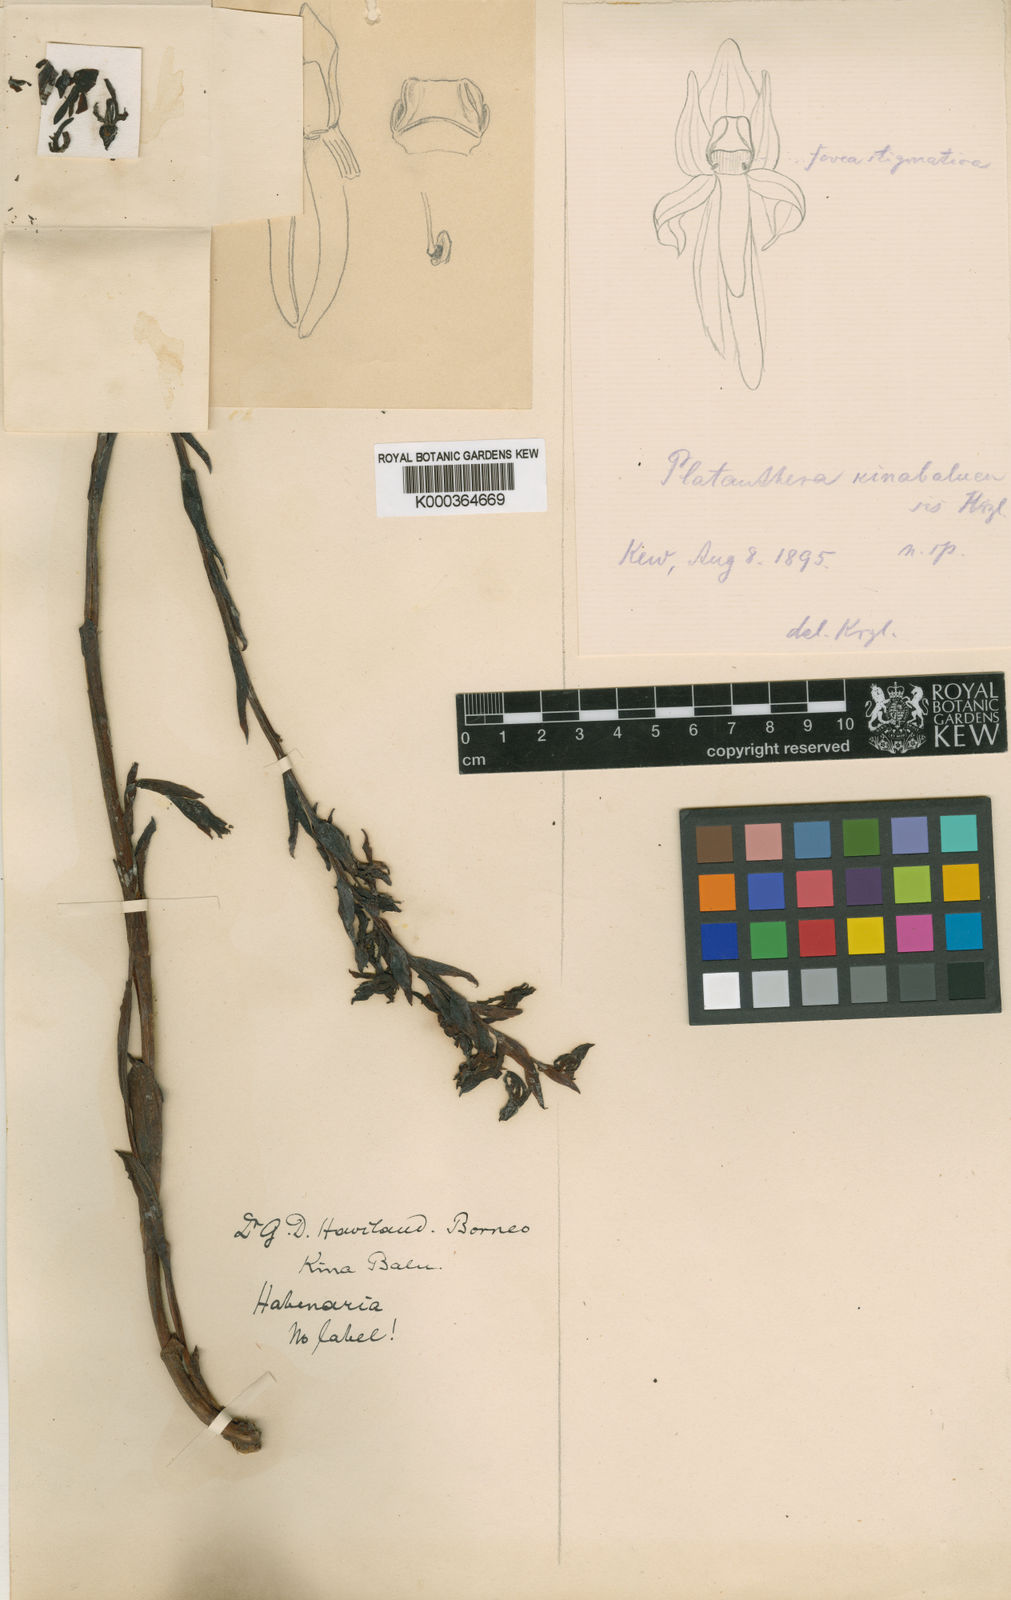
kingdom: Plantae
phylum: Tracheophyta
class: Liliopsida
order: Asparagales
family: Orchidaceae
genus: Platanthera
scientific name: Platanthera kinabaluensis
